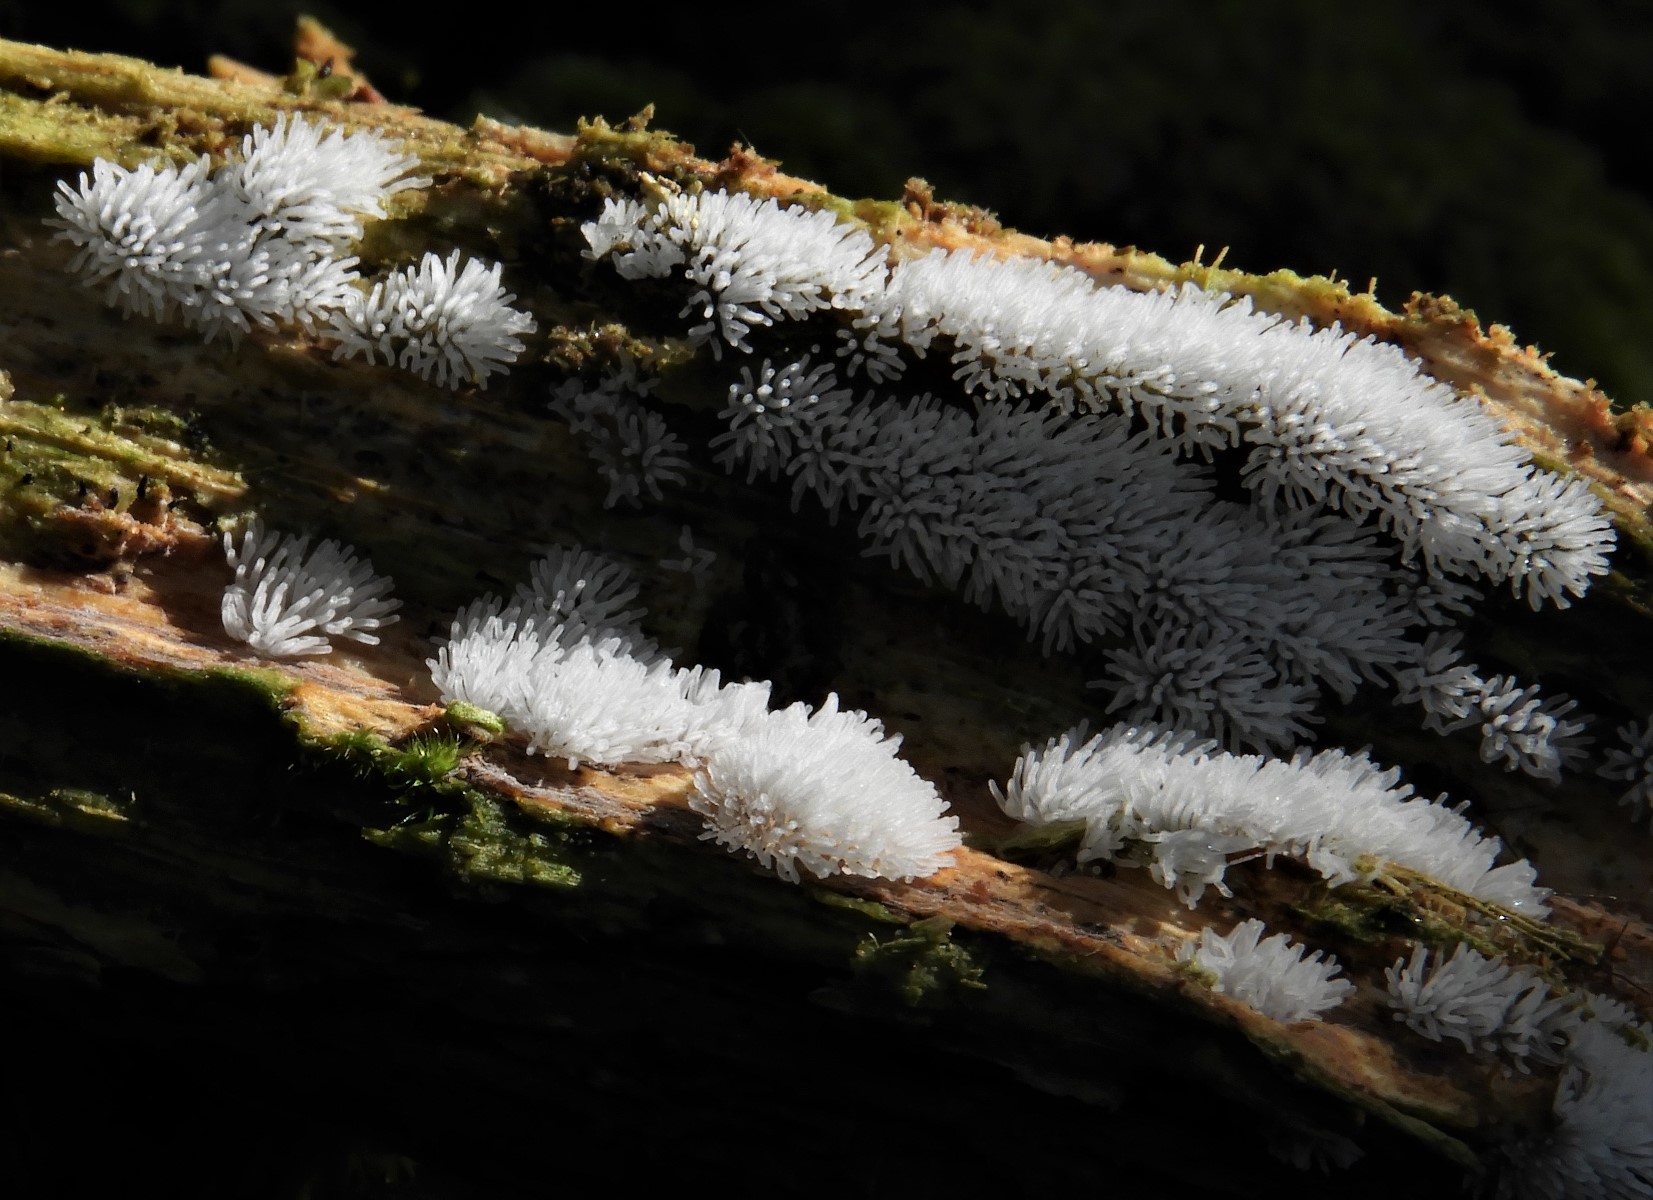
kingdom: Protozoa
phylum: Mycetozoa
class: Protosteliomycetes
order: Ceratiomyxales
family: Ceratiomyxaceae
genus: Ceratiomyxa
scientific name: Ceratiomyxa fruticulosa
